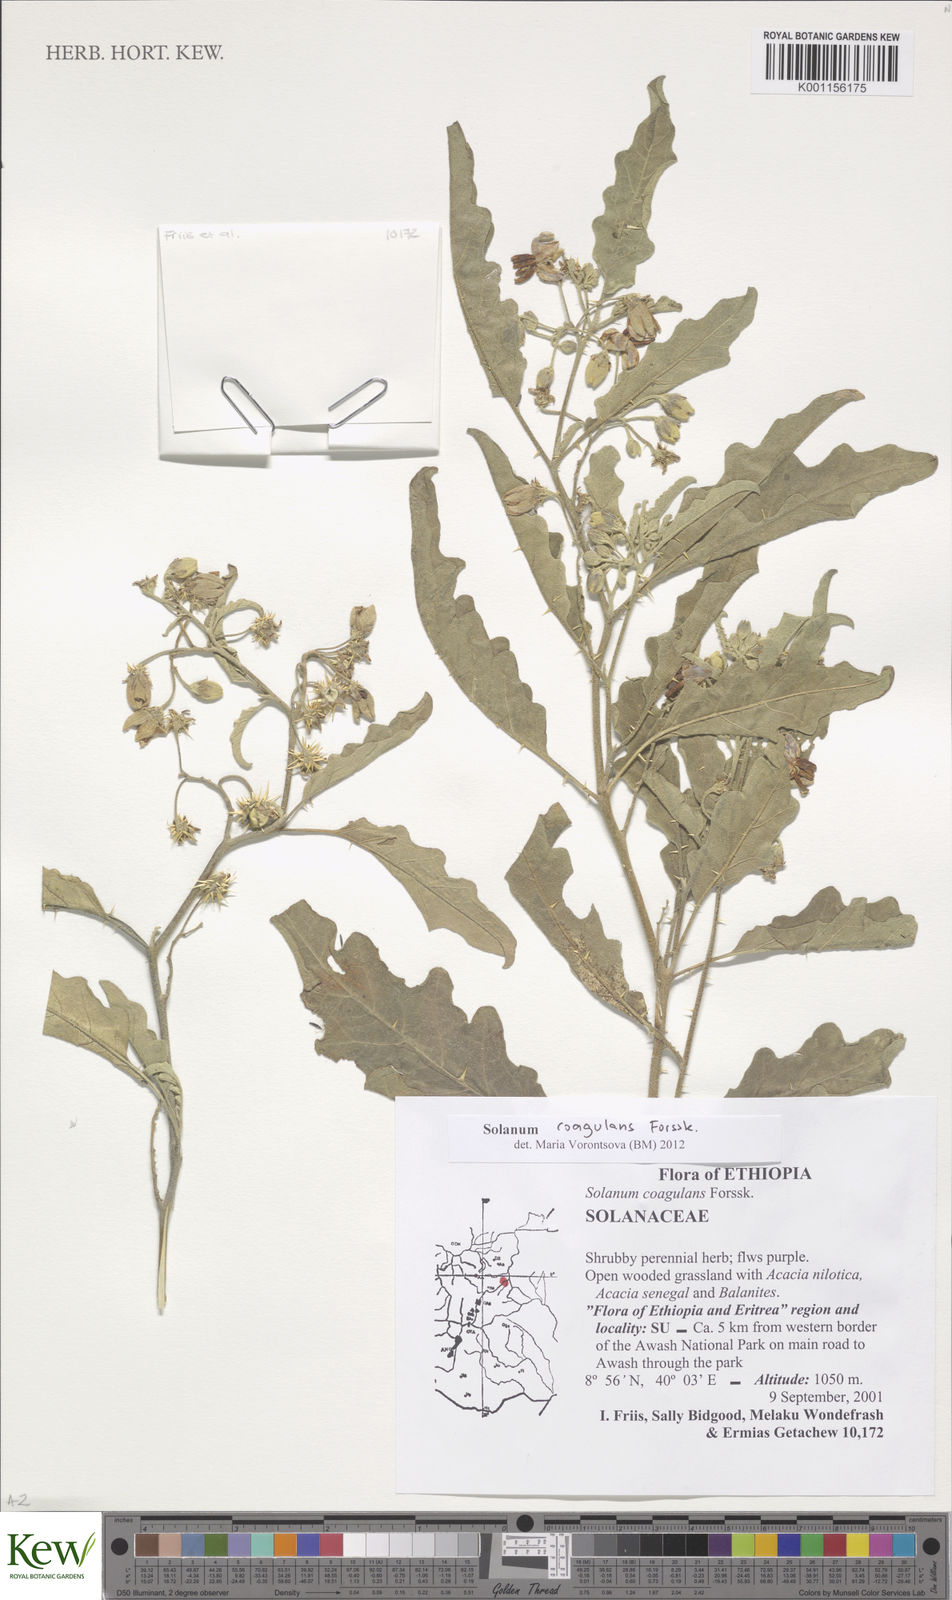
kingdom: Plantae
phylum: Tracheophyta
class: Magnoliopsida
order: Solanales
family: Solanaceae
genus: Solanum
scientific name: Solanum coagulans
